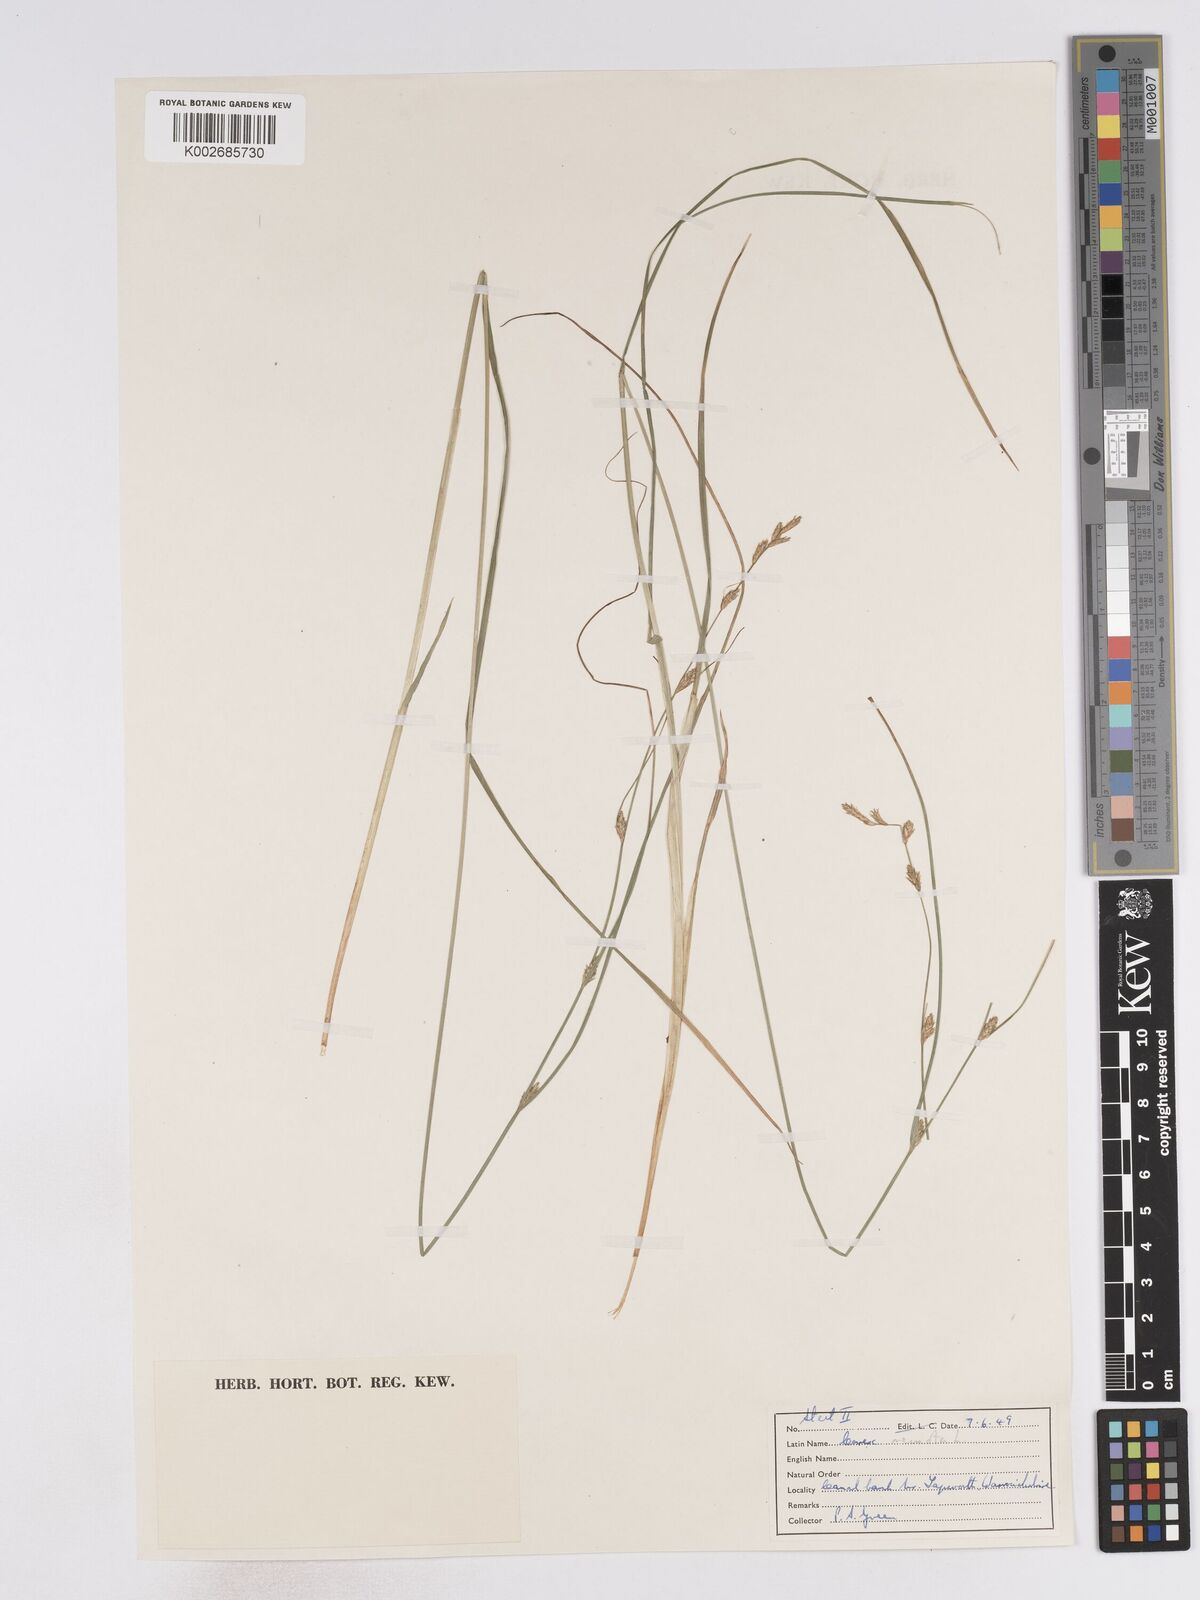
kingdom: Plantae
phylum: Tracheophyta
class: Liliopsida
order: Poales
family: Cyperaceae
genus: Carex
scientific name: Carex remota
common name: Remote sedge
